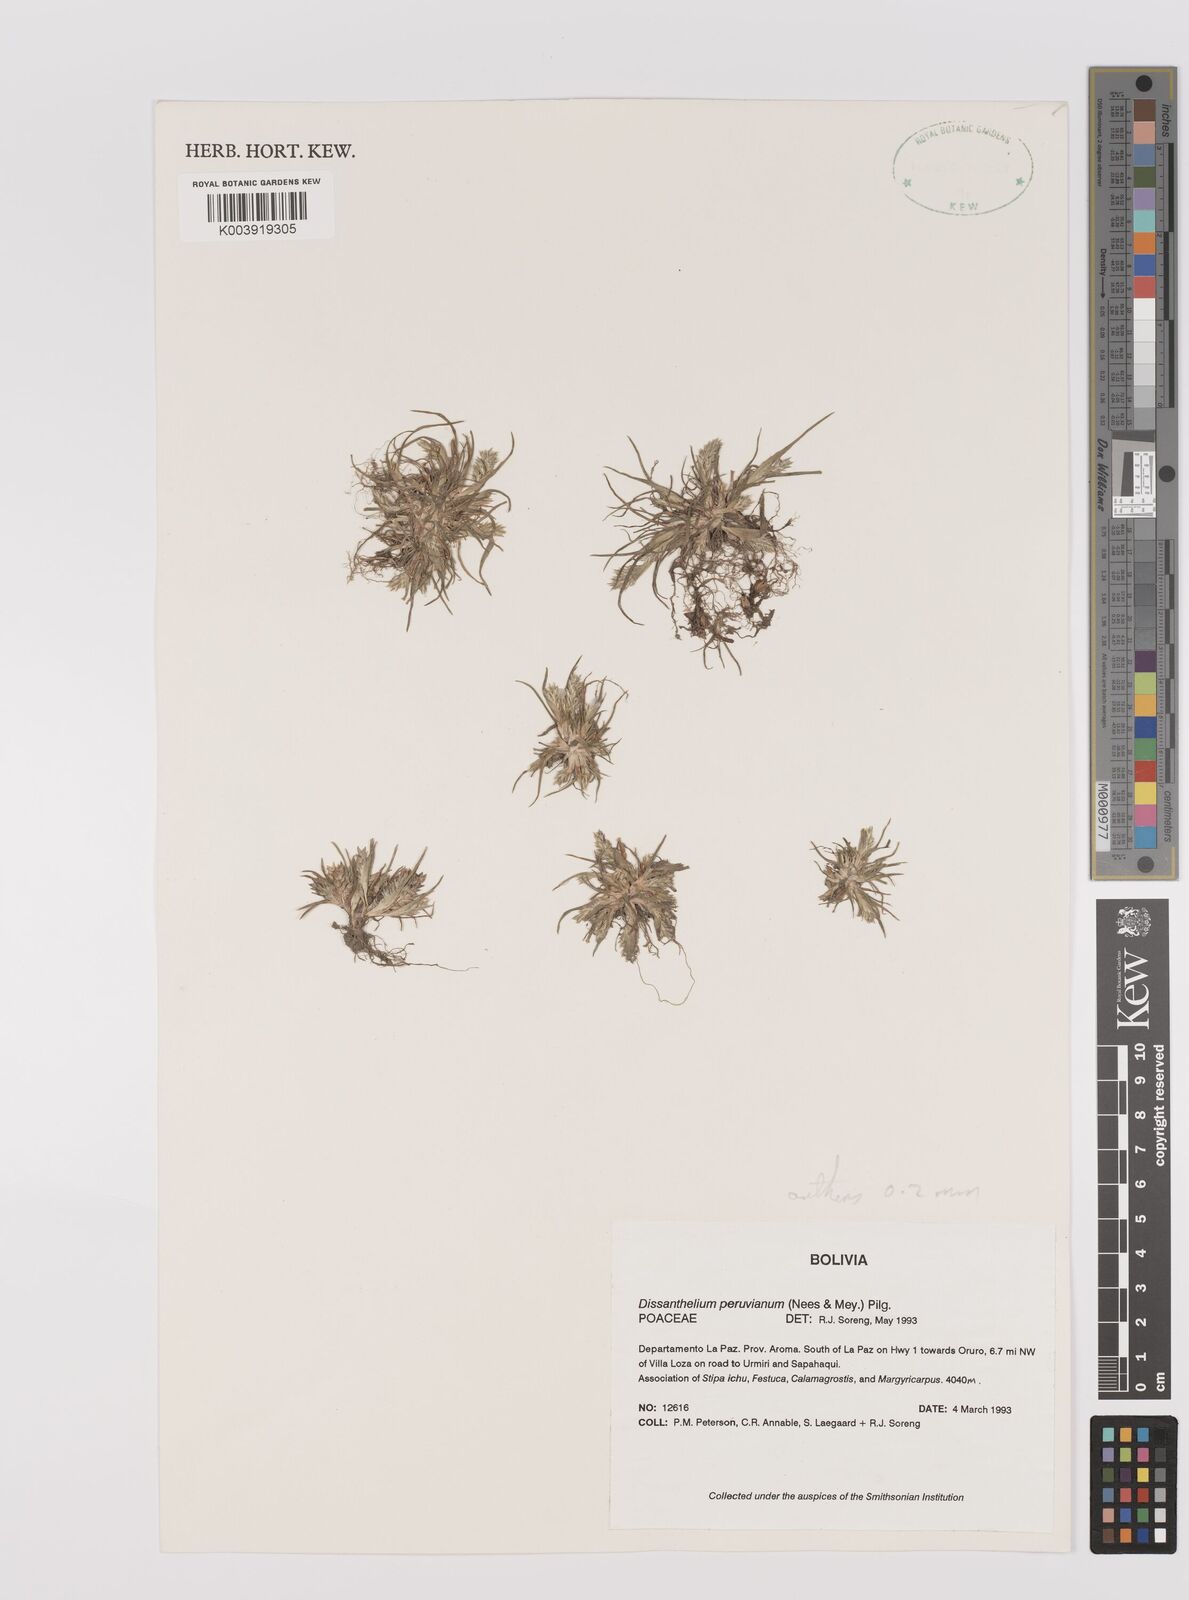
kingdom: Plantae
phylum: Tracheophyta
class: Liliopsida
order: Poales
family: Poaceae
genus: Poa
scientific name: Poa serpana
